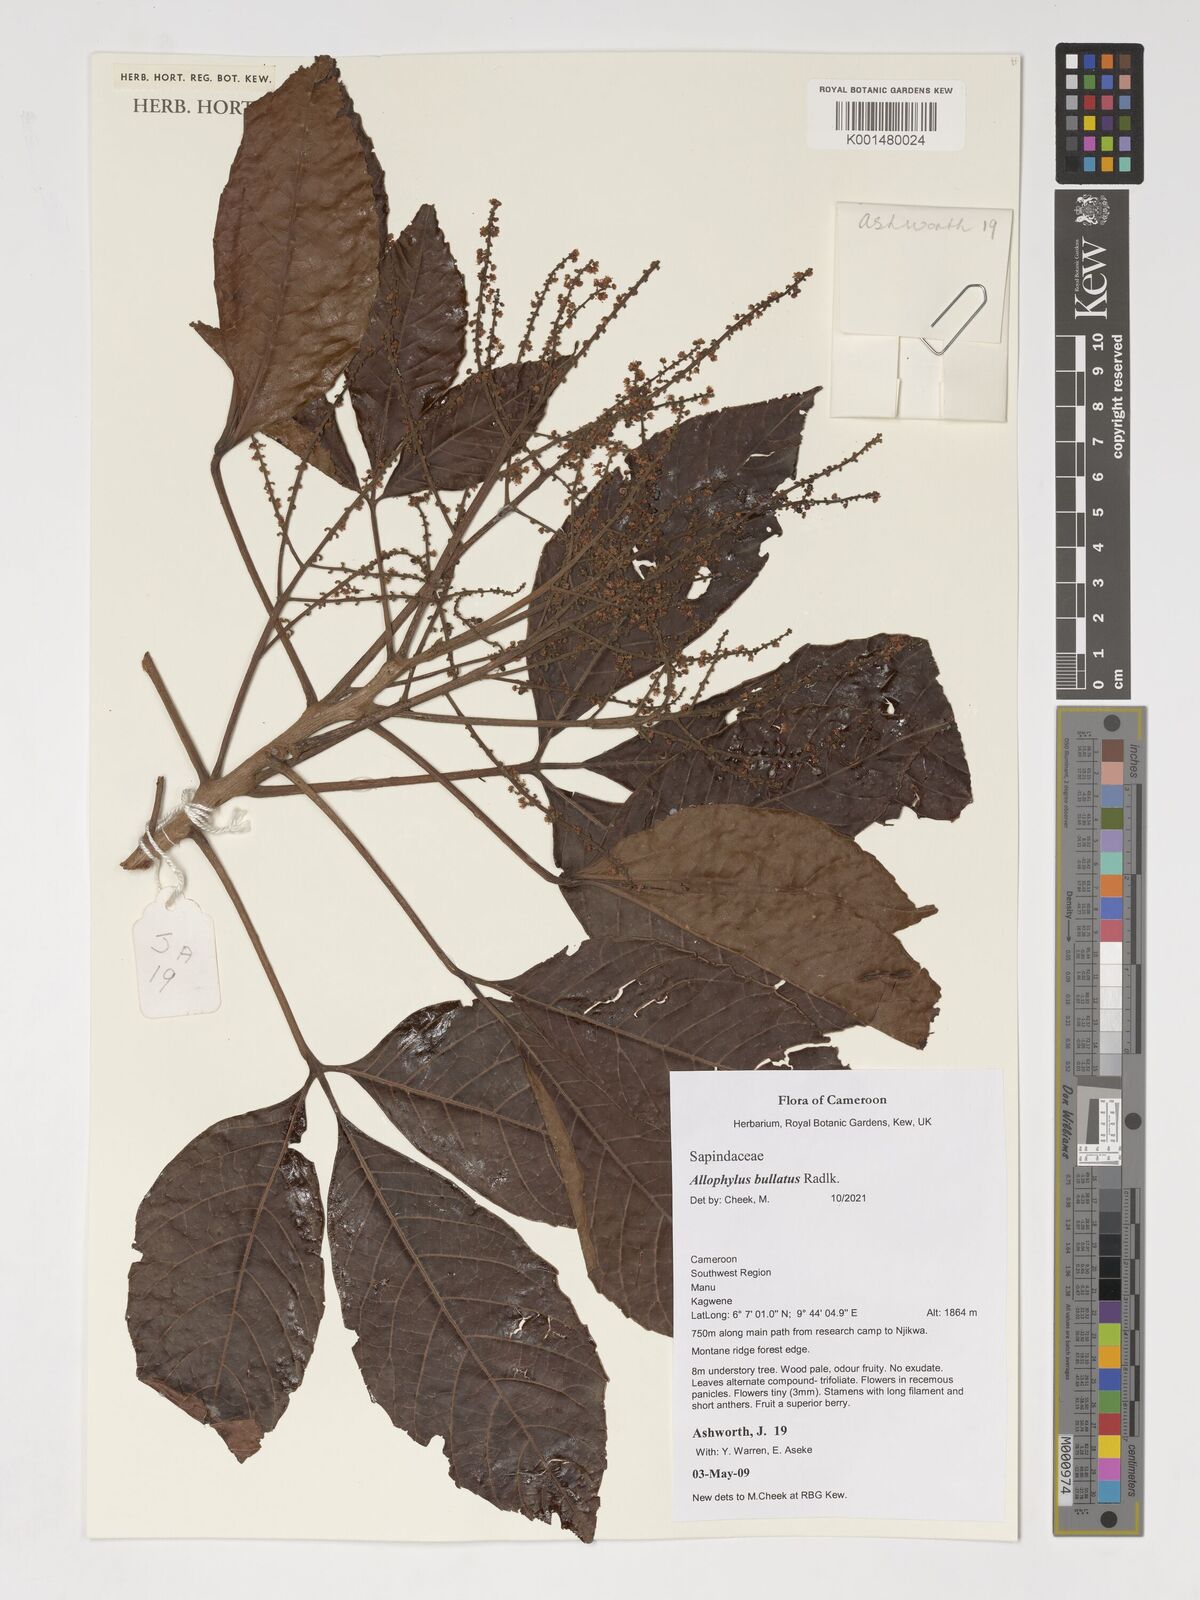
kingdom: Plantae
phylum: Tracheophyta
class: Magnoliopsida
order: Sapindales
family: Sapindaceae
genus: Allophylus
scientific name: Allophylus bullatus
